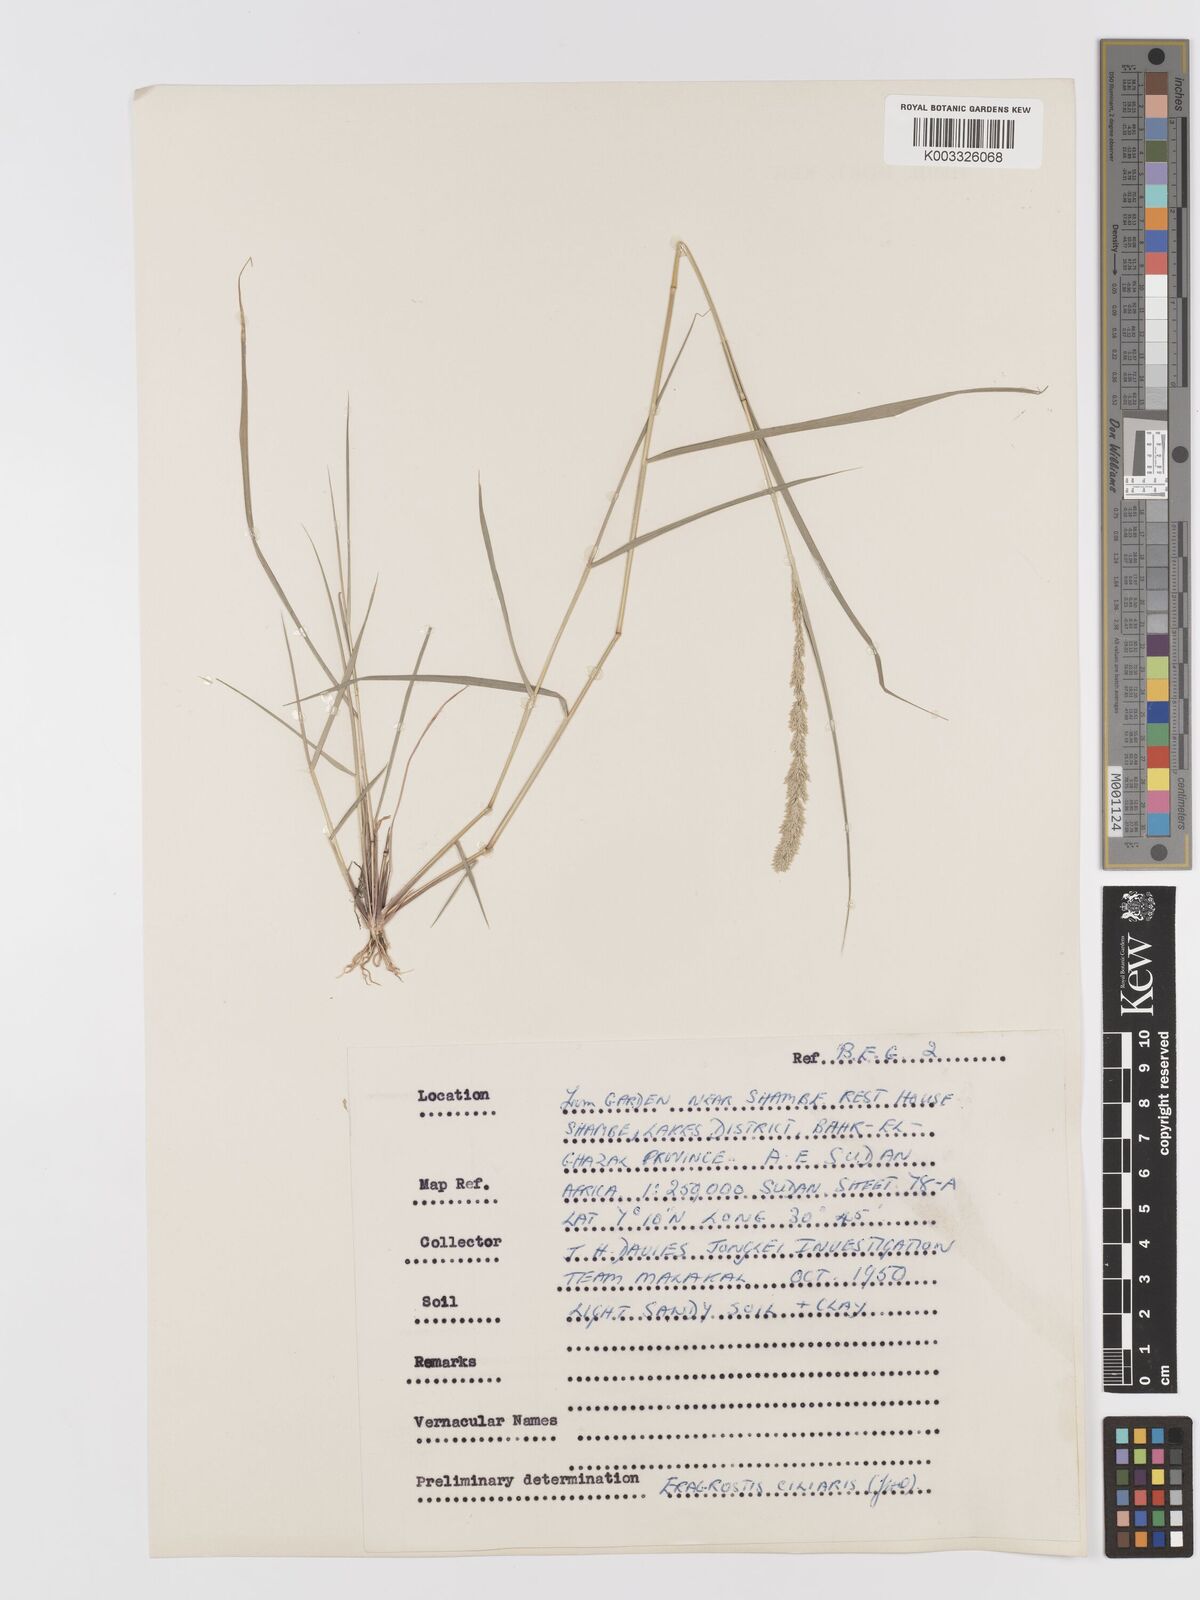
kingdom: Plantae
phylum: Tracheophyta
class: Liliopsida
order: Poales
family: Poaceae
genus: Eragrostis
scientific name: Eragrostis ciliaris
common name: Gophertail lovegrass
